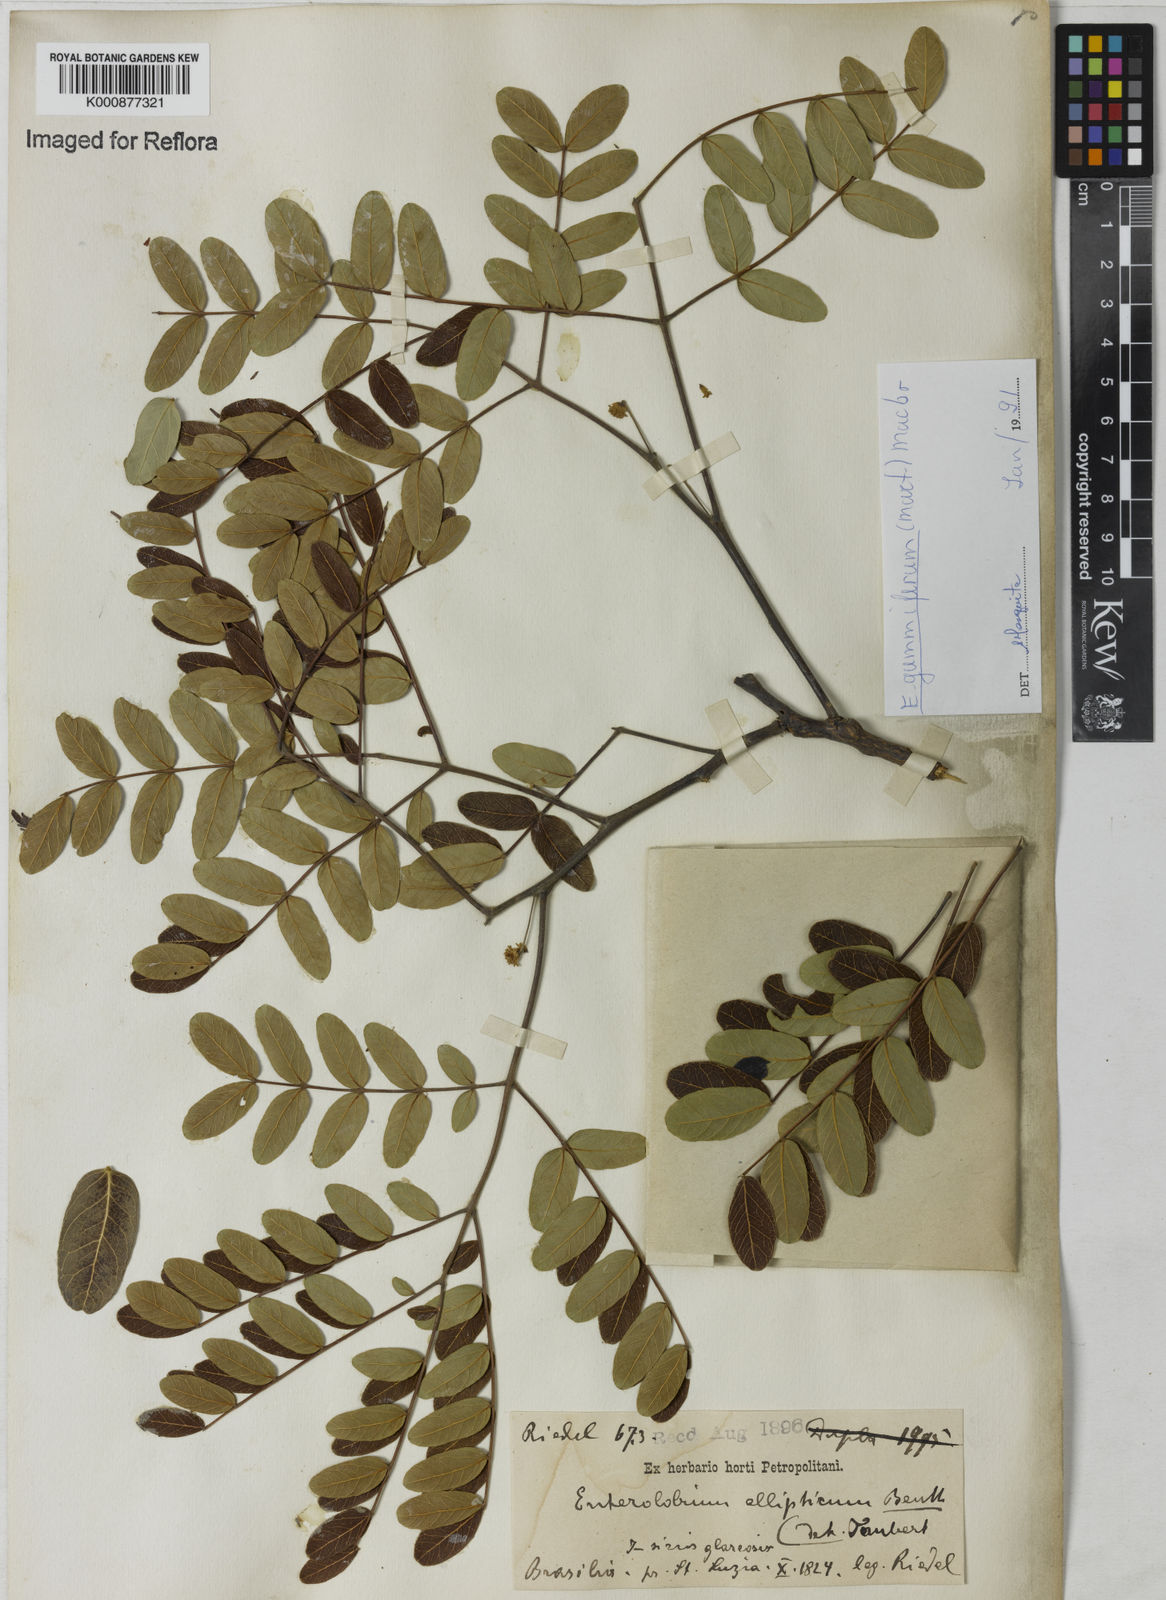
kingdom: Plantae
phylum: Tracheophyta
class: Magnoliopsida
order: Fabales
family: Fabaceae
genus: Enterolobium
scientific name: Enterolobium gummiferum
